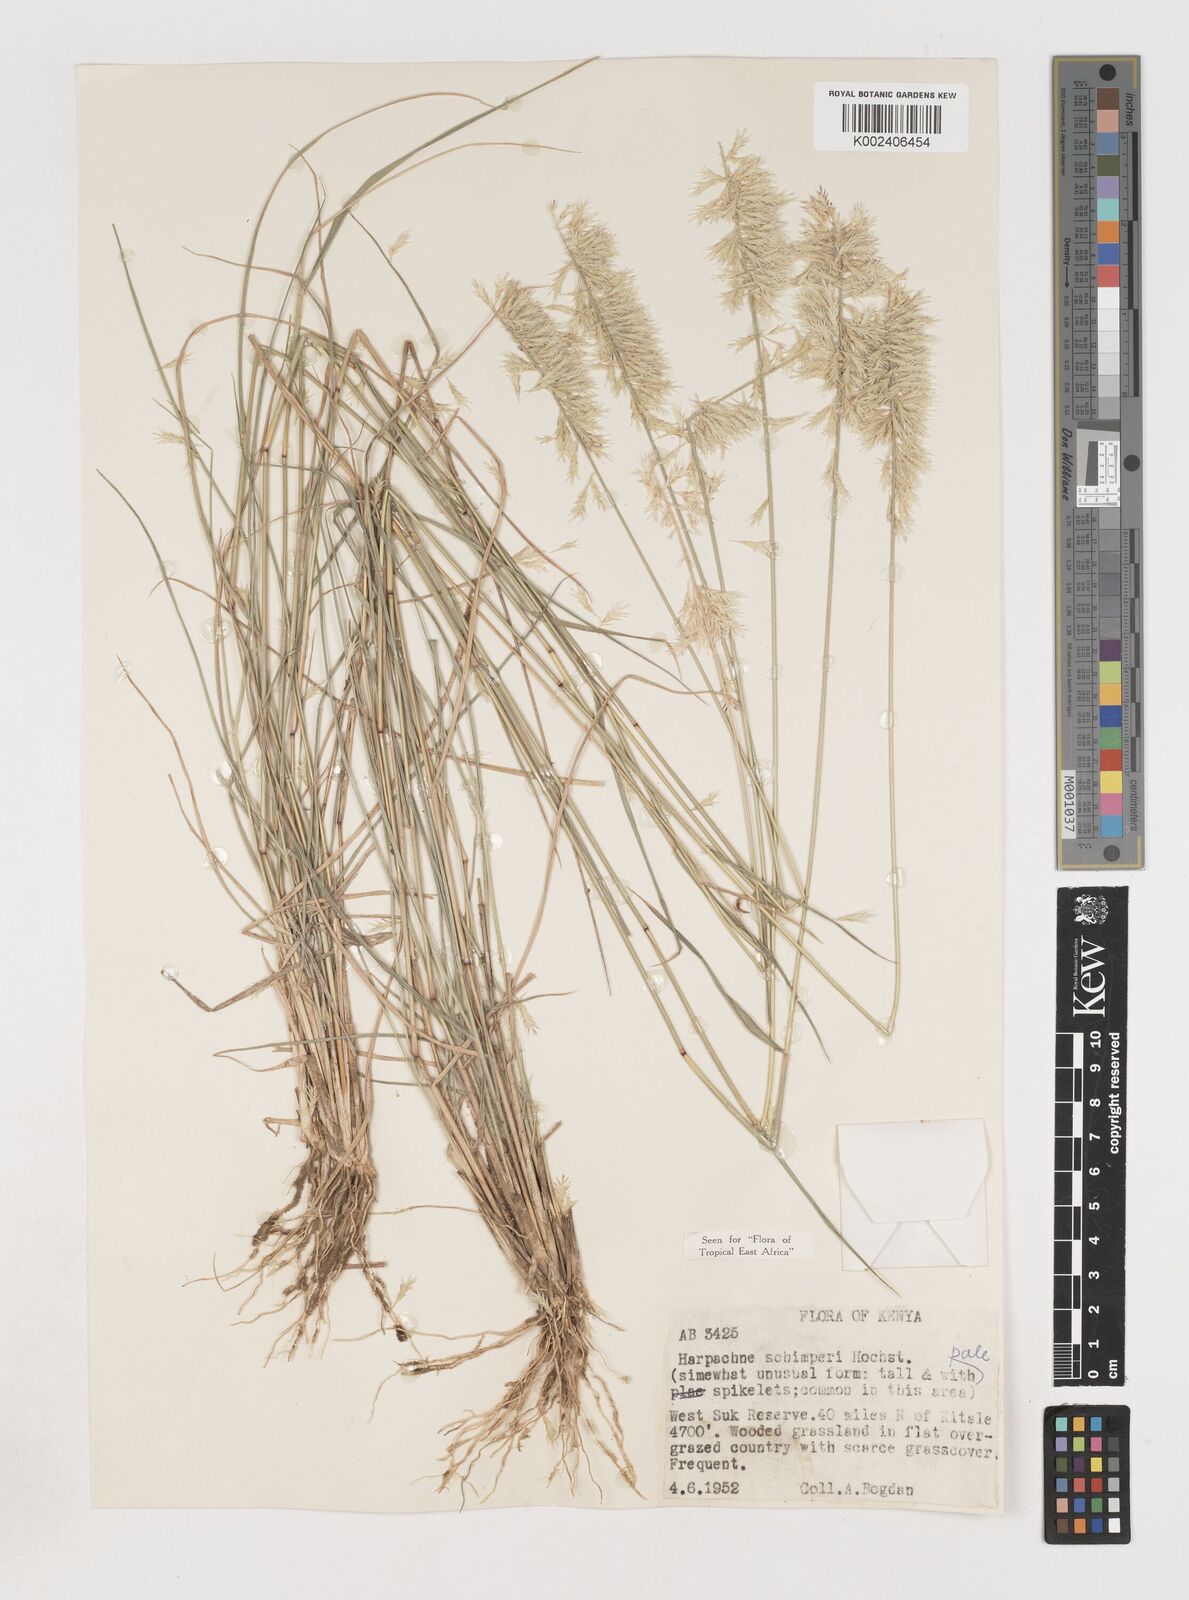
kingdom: Plantae
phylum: Tracheophyta
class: Liliopsida
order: Poales
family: Poaceae
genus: Harpachne
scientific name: Harpachne schimperi
